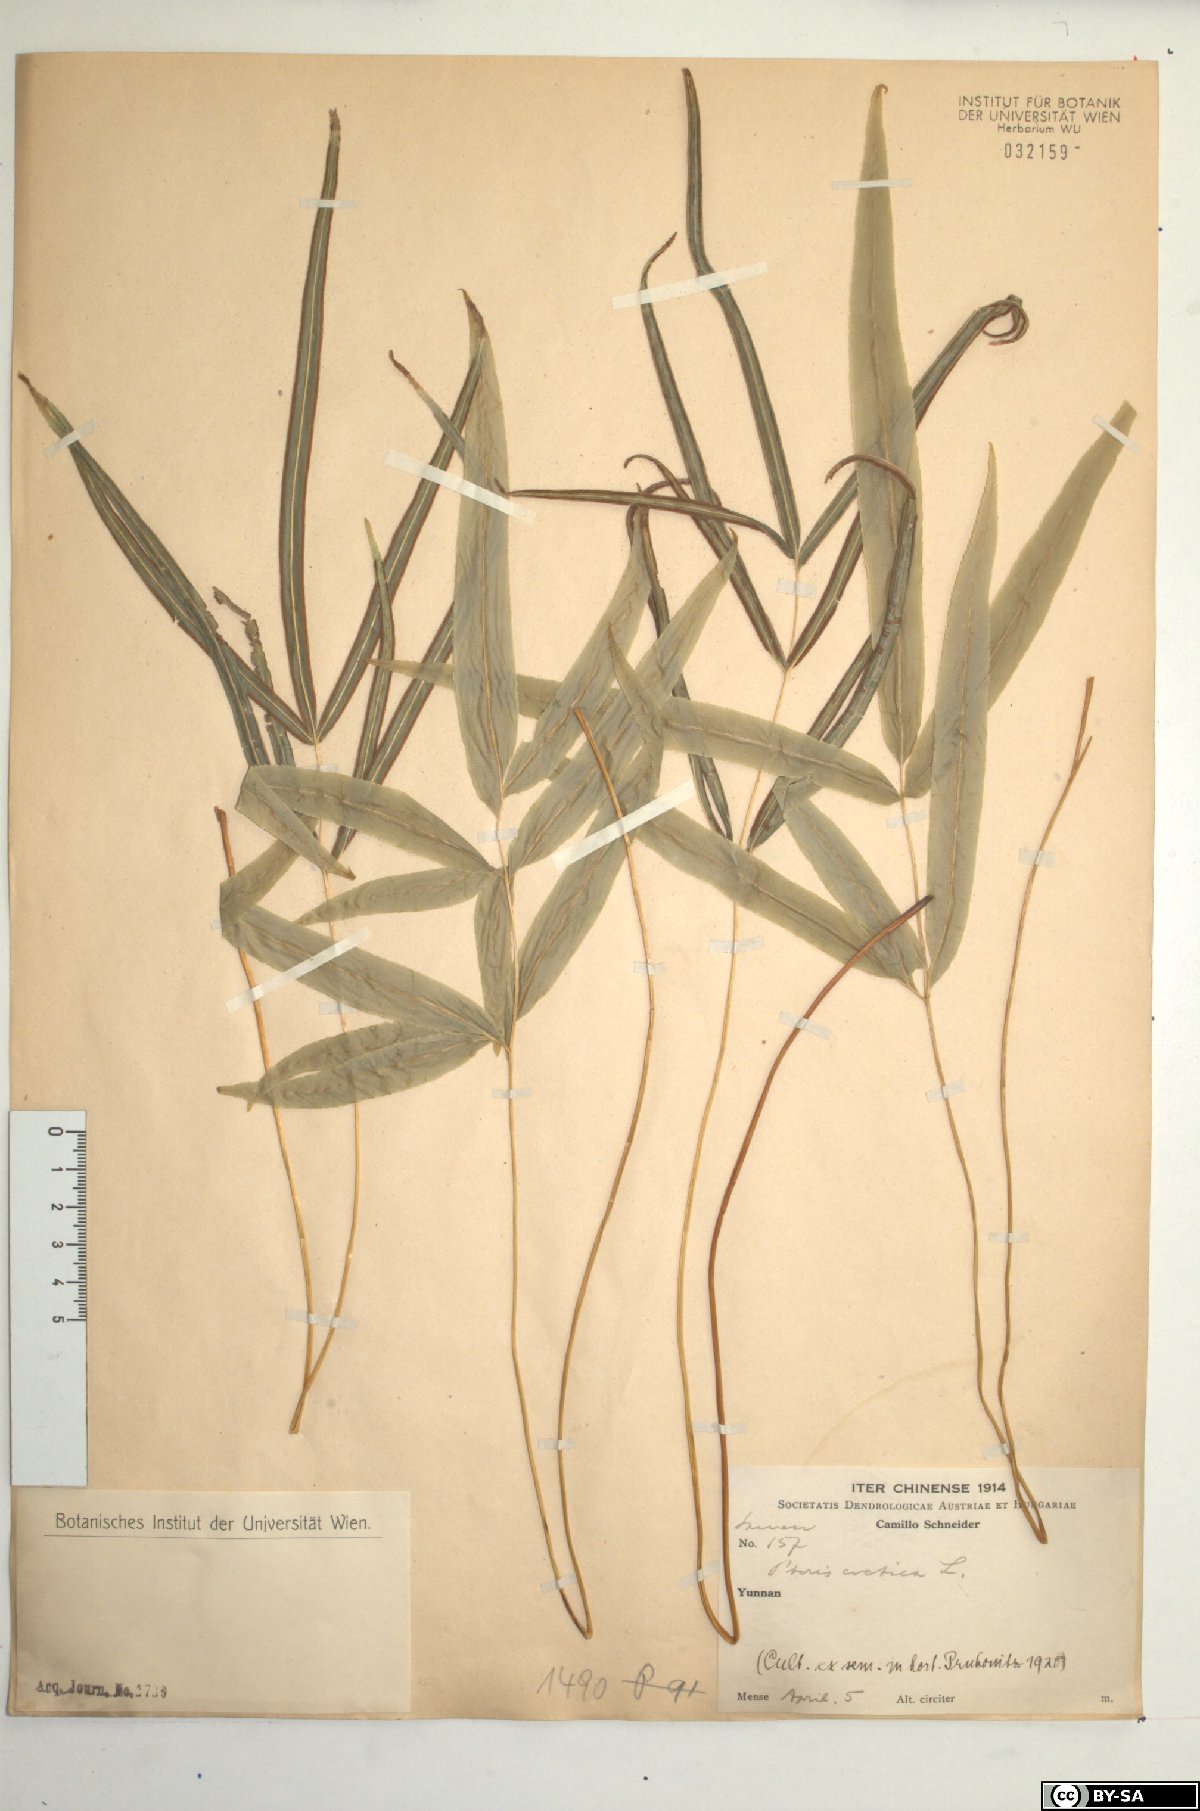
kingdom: Plantae
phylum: Tracheophyta
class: Polypodiopsida
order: Polypodiales
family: Pteridaceae
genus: Pteris
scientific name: Pteris cretica
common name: Ribbon fern
